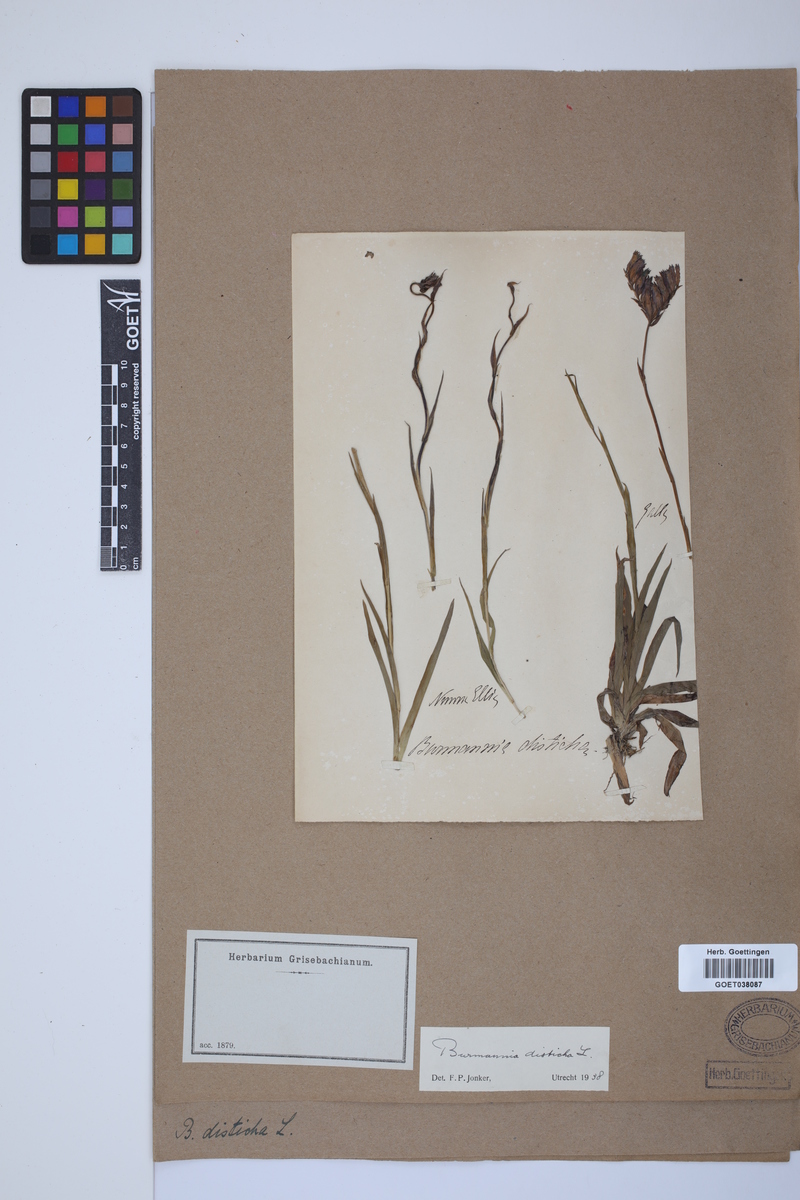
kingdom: Plantae
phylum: Tracheophyta
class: Liliopsida
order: Dioscoreales
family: Burmanniaceae
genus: Burmannia
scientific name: Burmannia disticha
